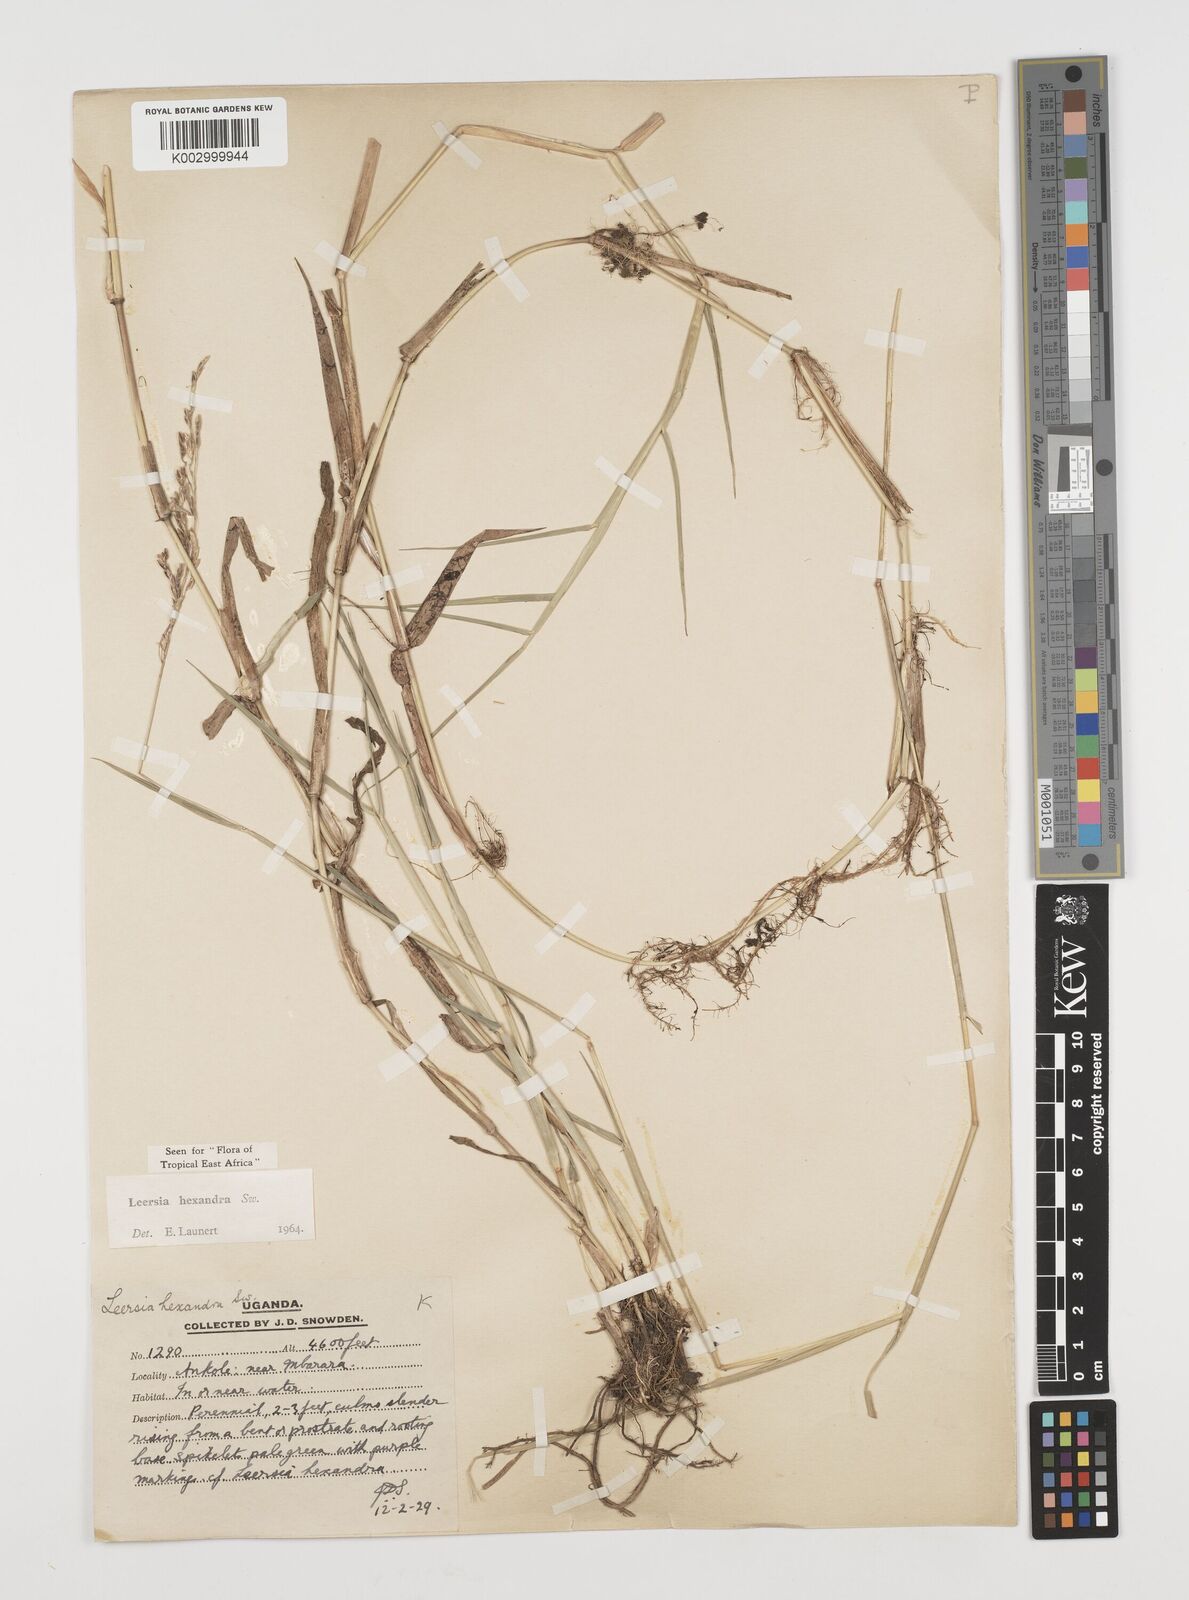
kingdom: Plantae
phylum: Tracheophyta
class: Liliopsida
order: Poales
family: Poaceae
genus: Leersia
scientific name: Leersia hexandra
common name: Southern cut grass
